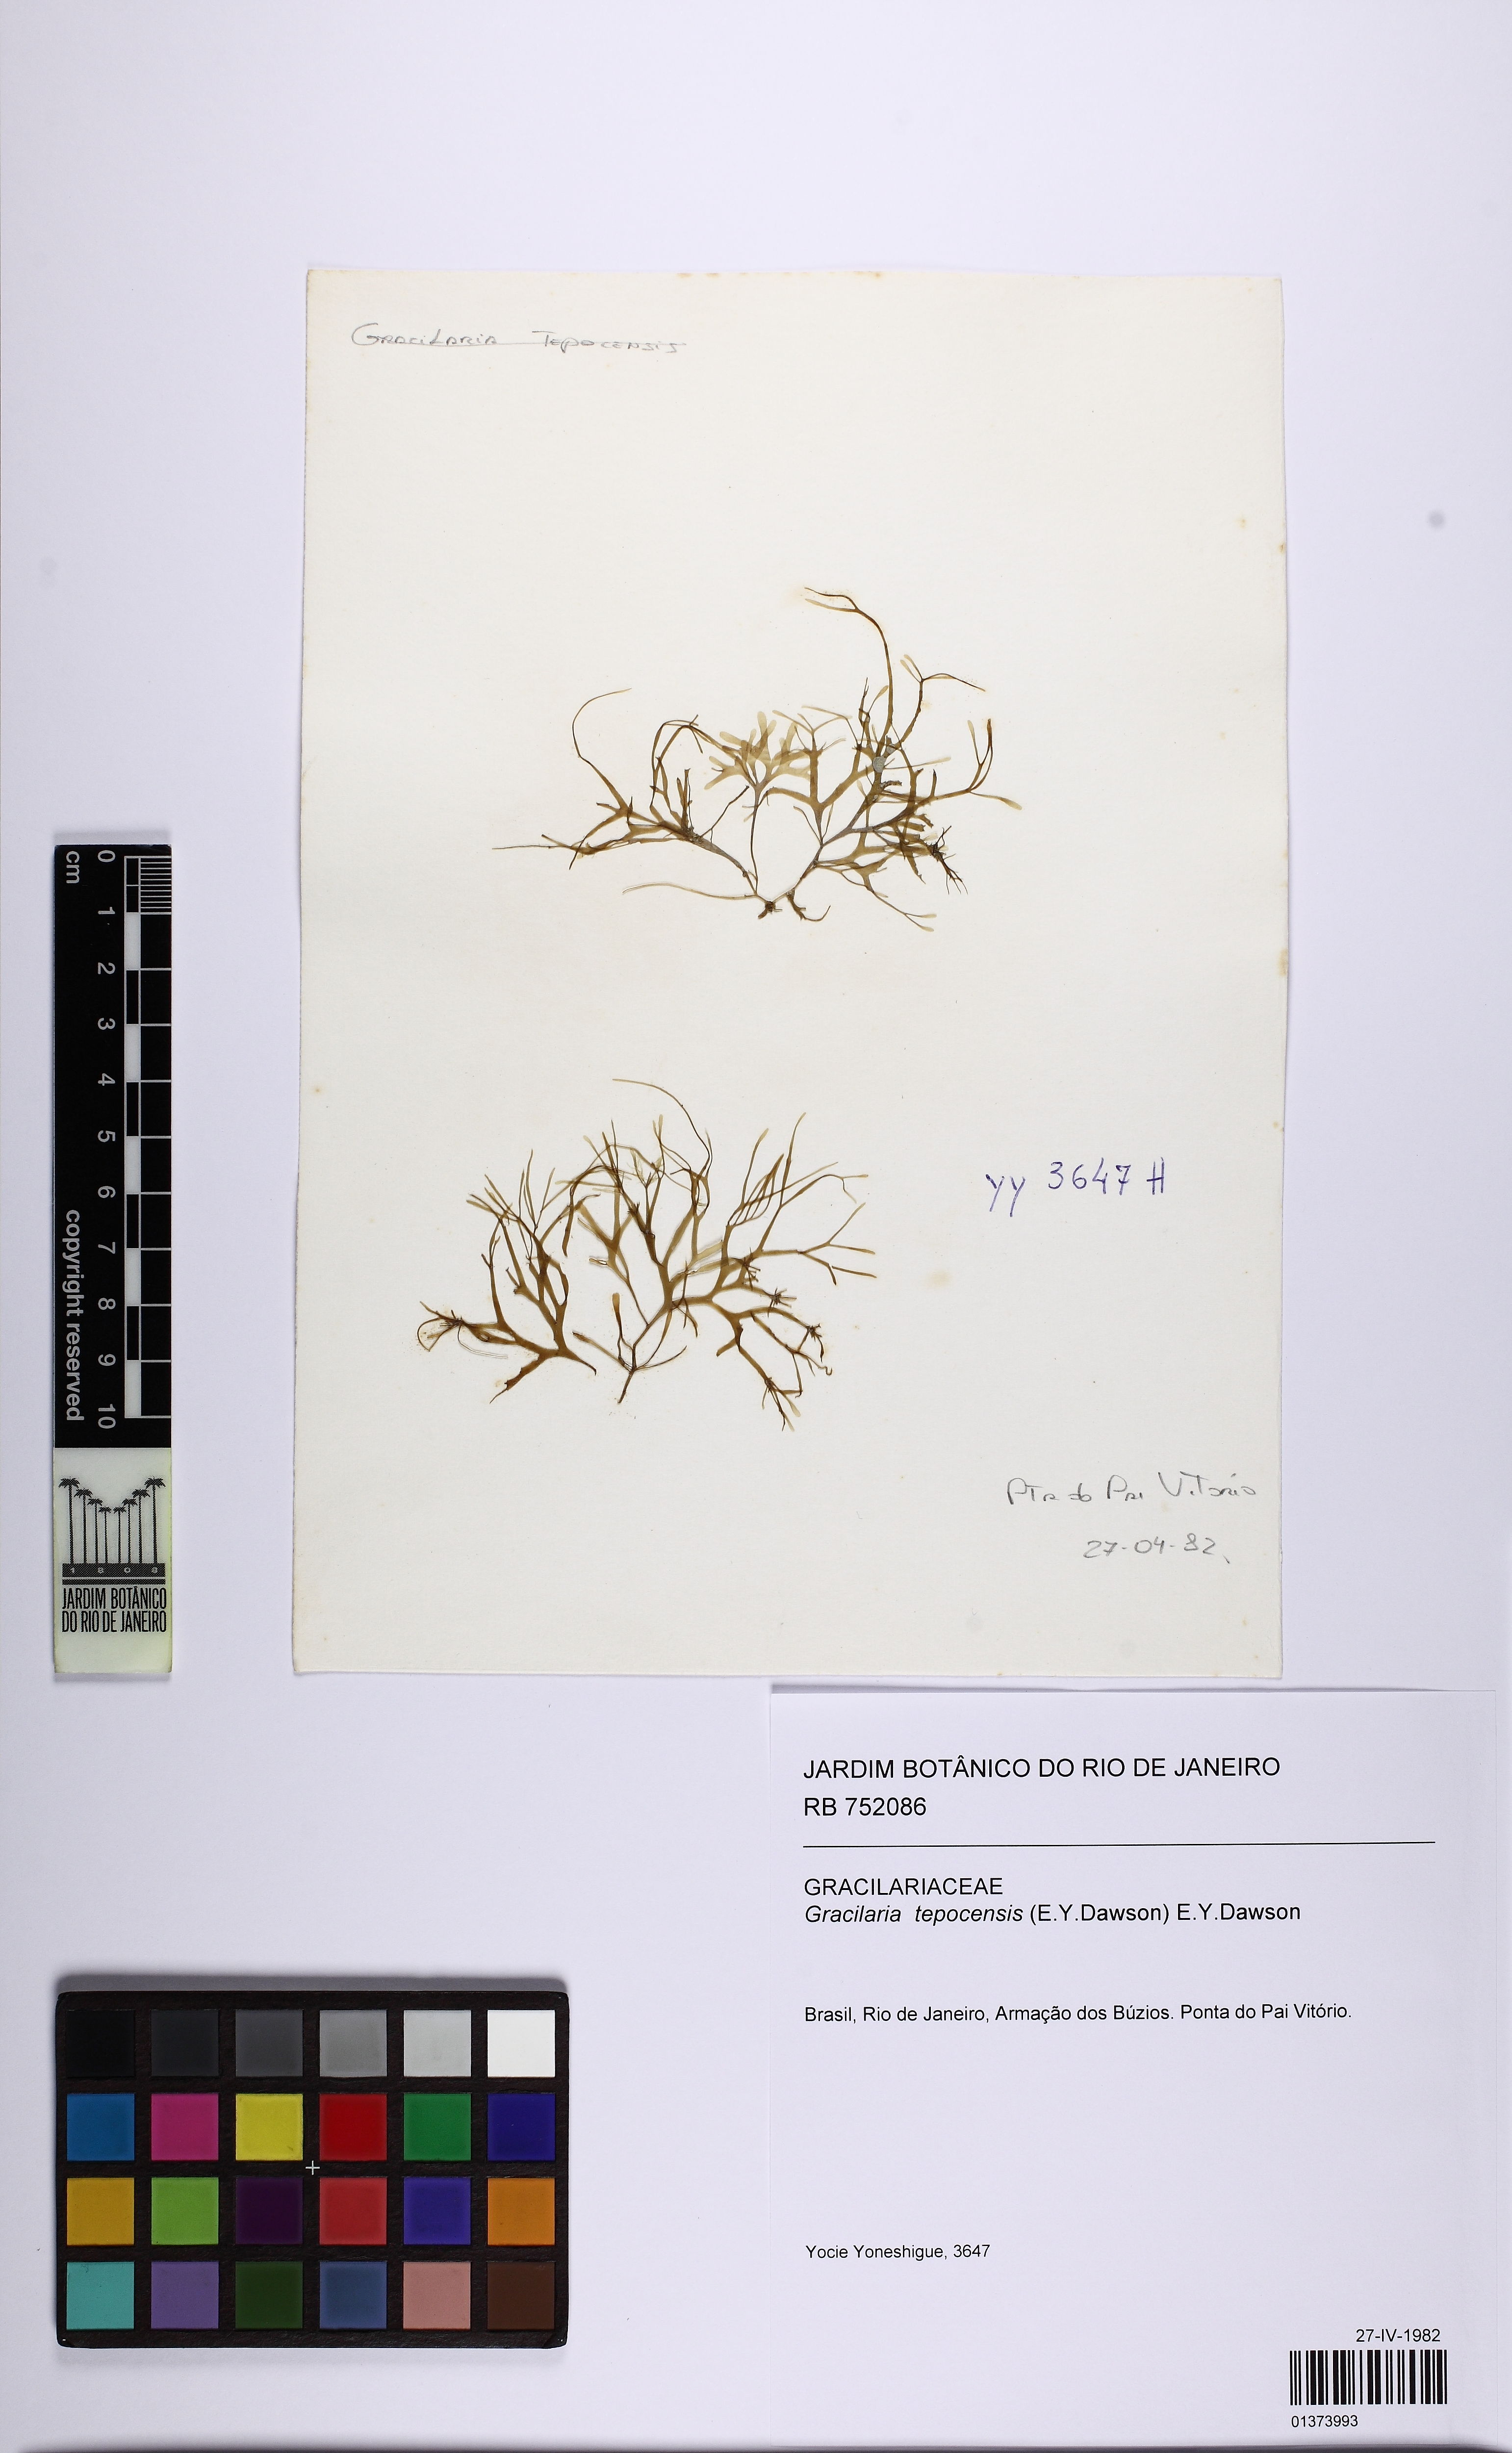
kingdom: Plantae
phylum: Rhodophyta
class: Florideophyceae
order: Rhodymeniales
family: Rhodymeniaceae
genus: Rhodymenia
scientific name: Rhodymenia Gracilaria tepocensis
